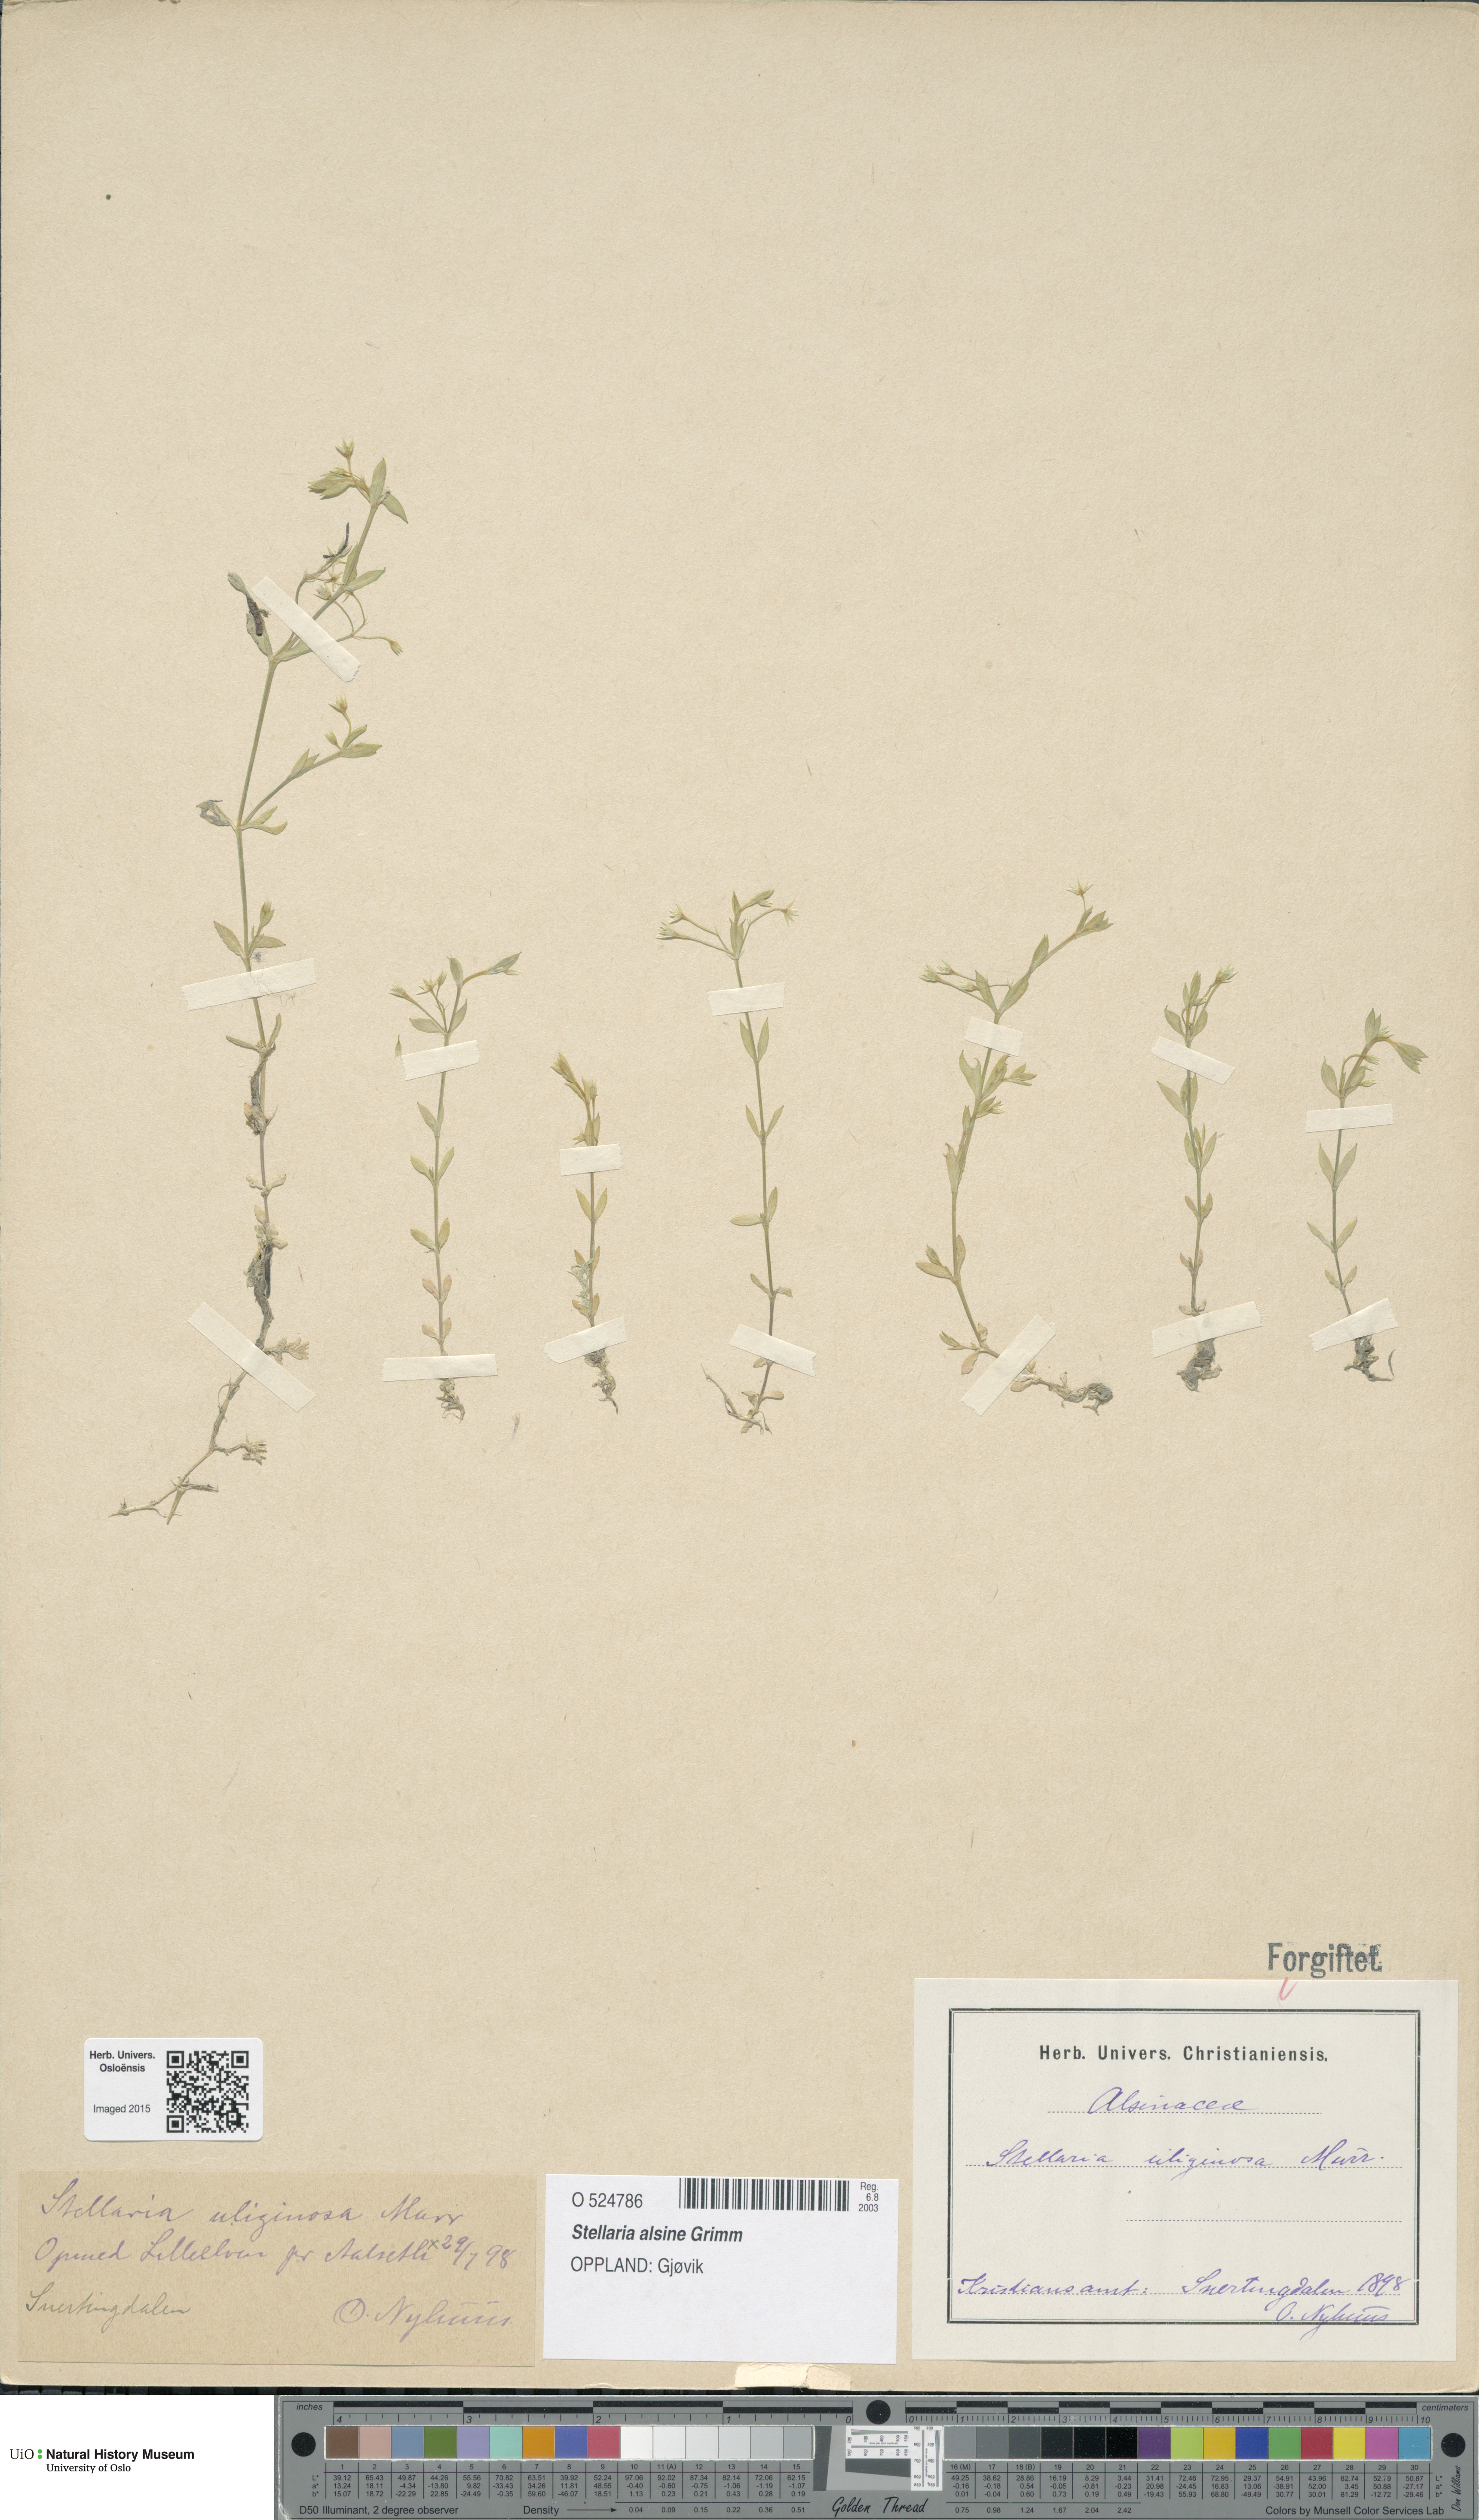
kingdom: Plantae
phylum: Tracheophyta
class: Magnoliopsida
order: Caryophyllales
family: Caryophyllaceae
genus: Stellaria
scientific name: Stellaria alsine
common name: Bog stitchwort
